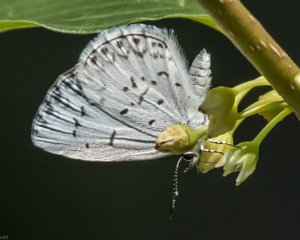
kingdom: Animalia
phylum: Arthropoda
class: Insecta
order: Lepidoptera
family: Lycaenidae
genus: Celastrina
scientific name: Celastrina
